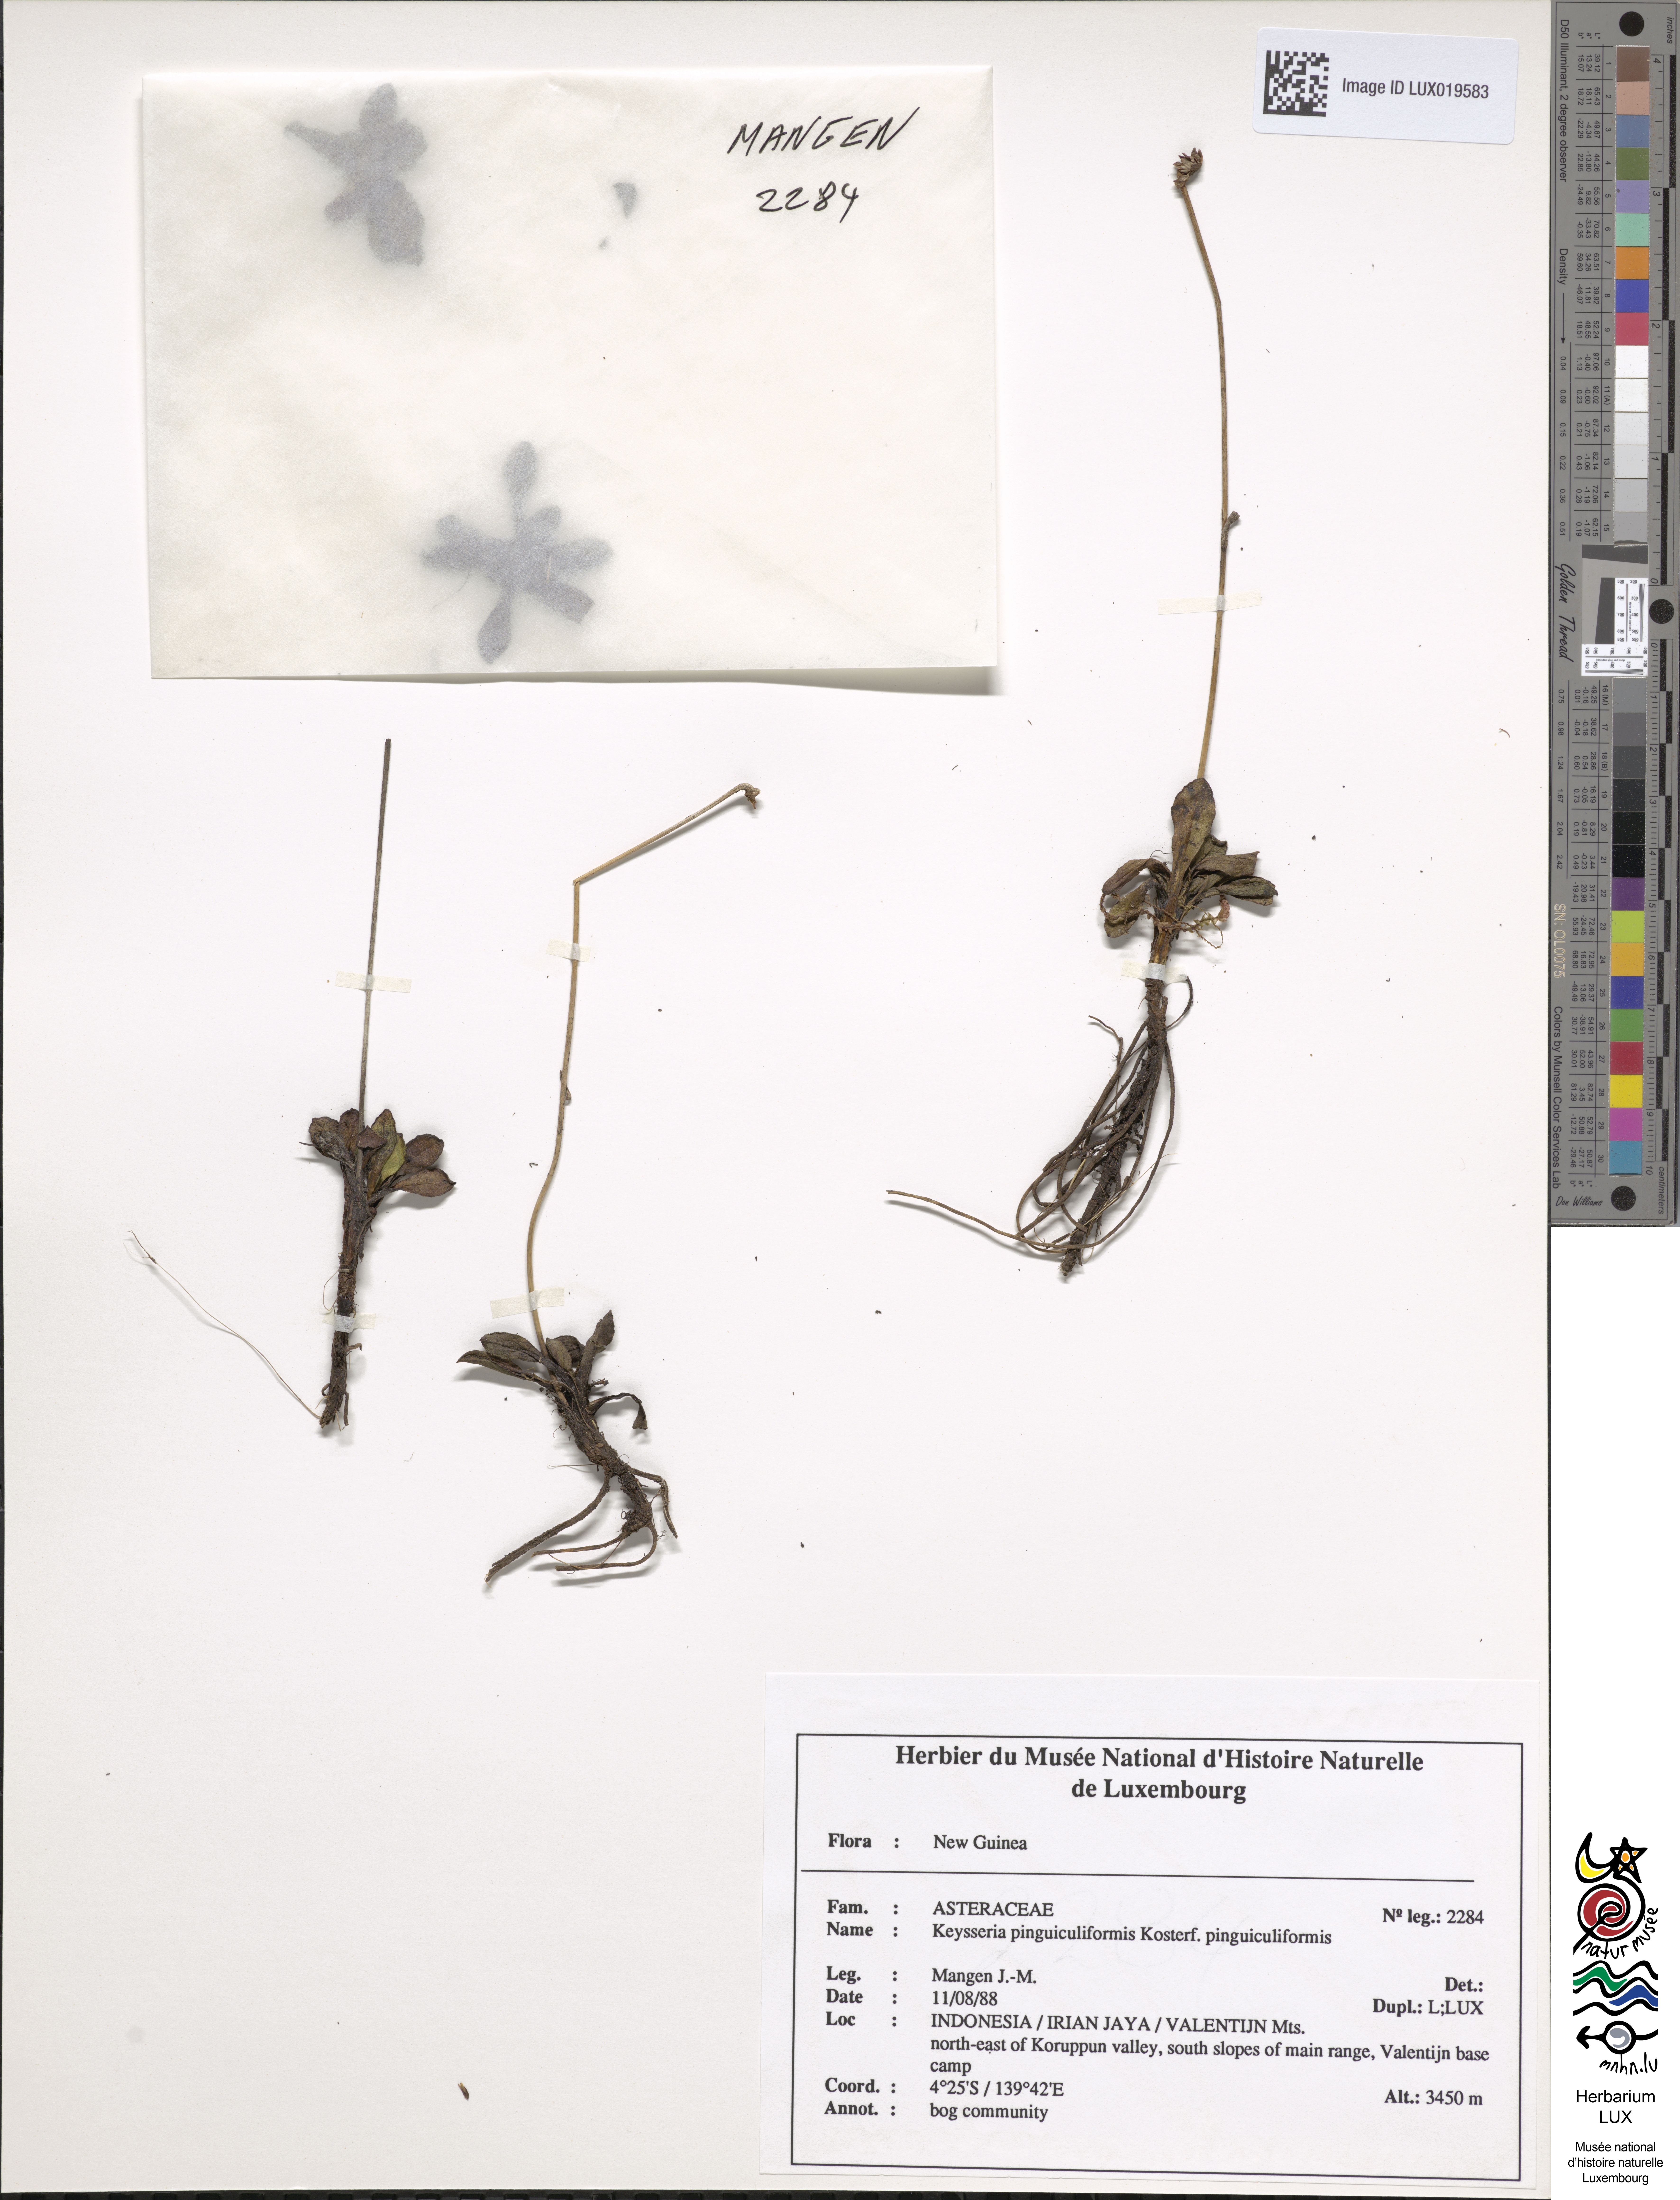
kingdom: Plantae
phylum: Tracheophyta
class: Magnoliopsida
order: Asterales
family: Asteraceae
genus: Keysseria
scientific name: Keysseria pinguiculiformis
